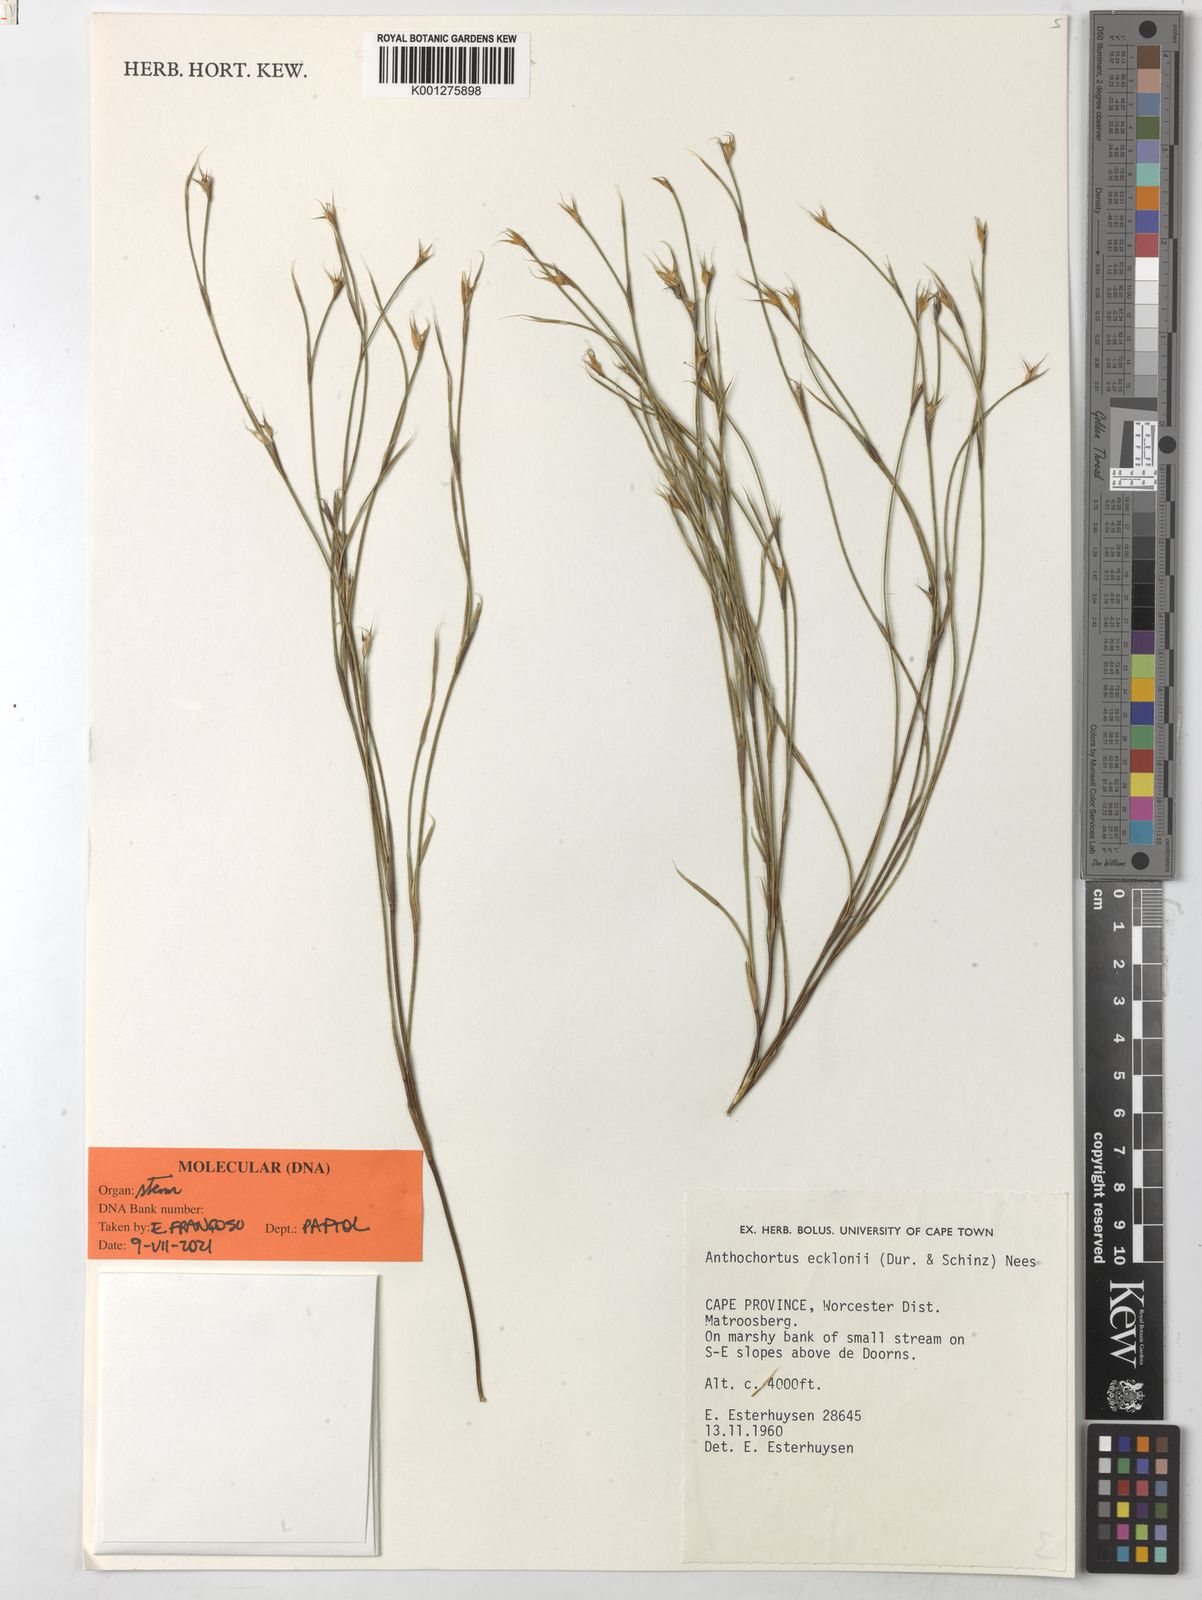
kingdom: Plantae
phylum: Tracheophyta
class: Liliopsida
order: Poales
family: Restionaceae
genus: Anthochortus
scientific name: Anthochortus ecklonii
